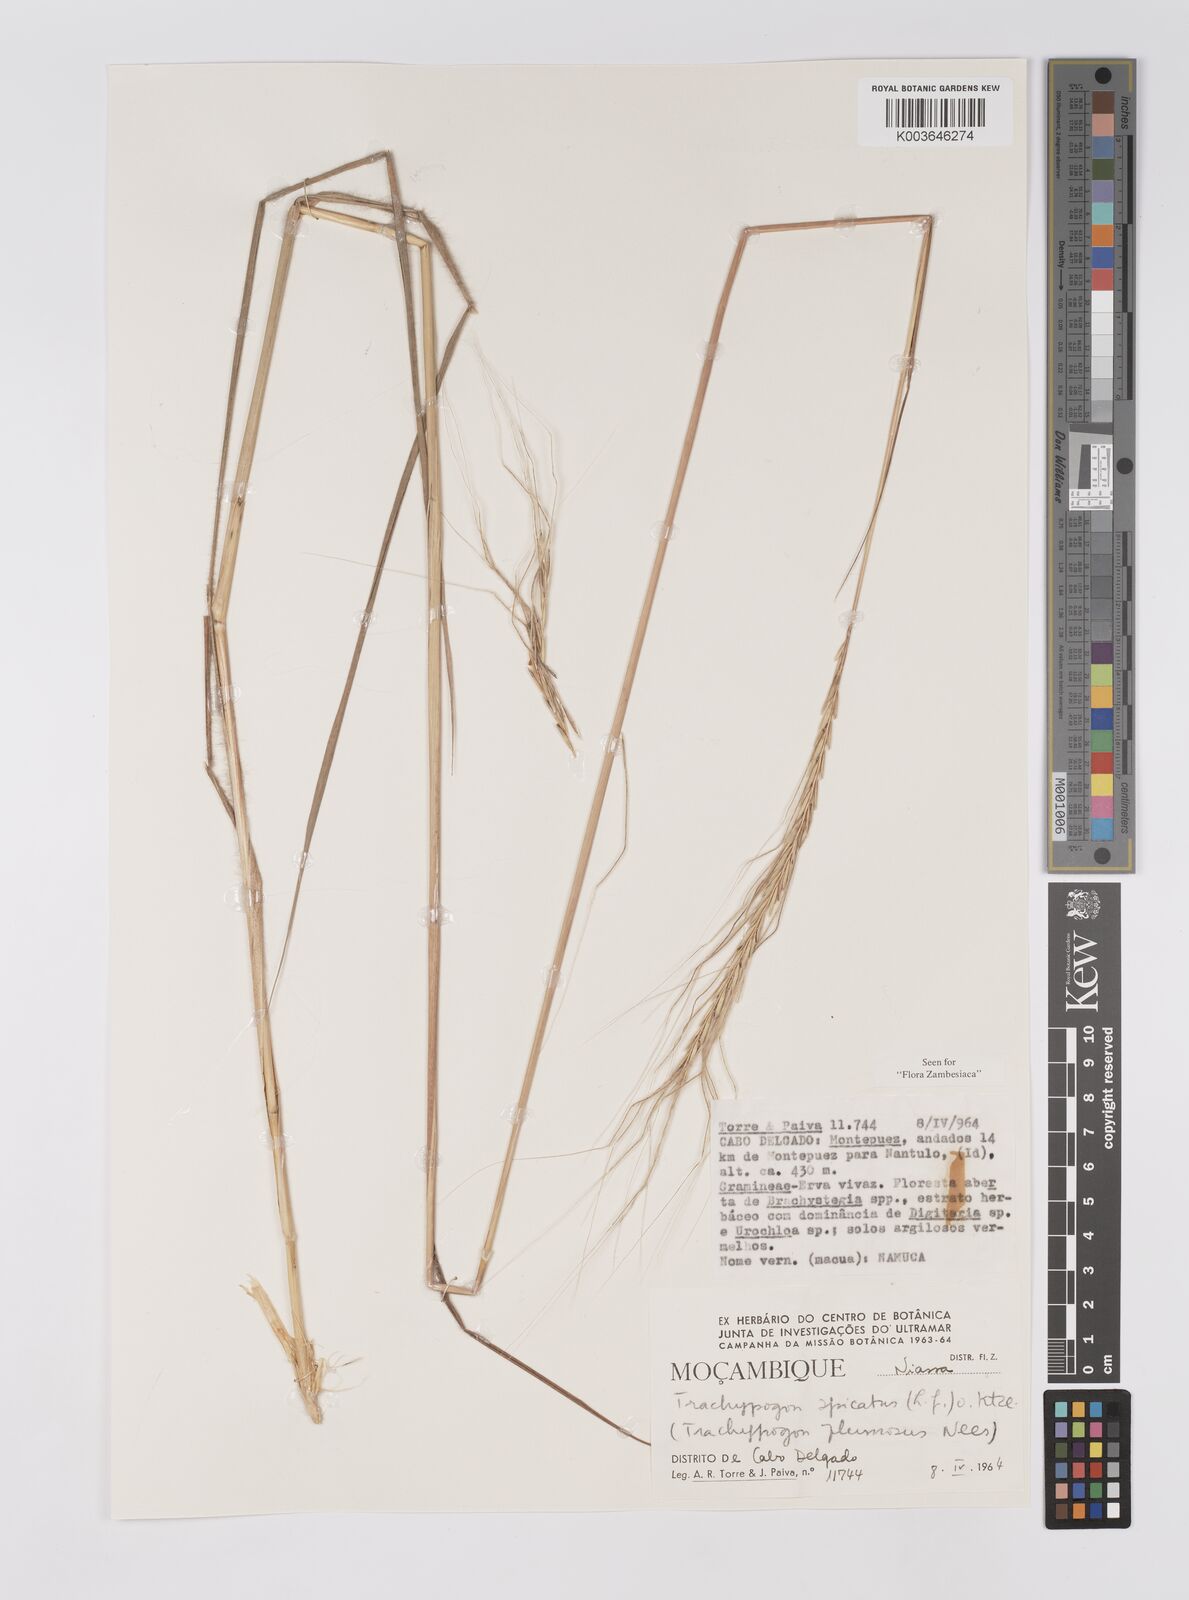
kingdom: Plantae
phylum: Tracheophyta
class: Liliopsida
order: Poales
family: Poaceae
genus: Trachypogon
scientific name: Trachypogon spicatus
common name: Crinkle-awn
